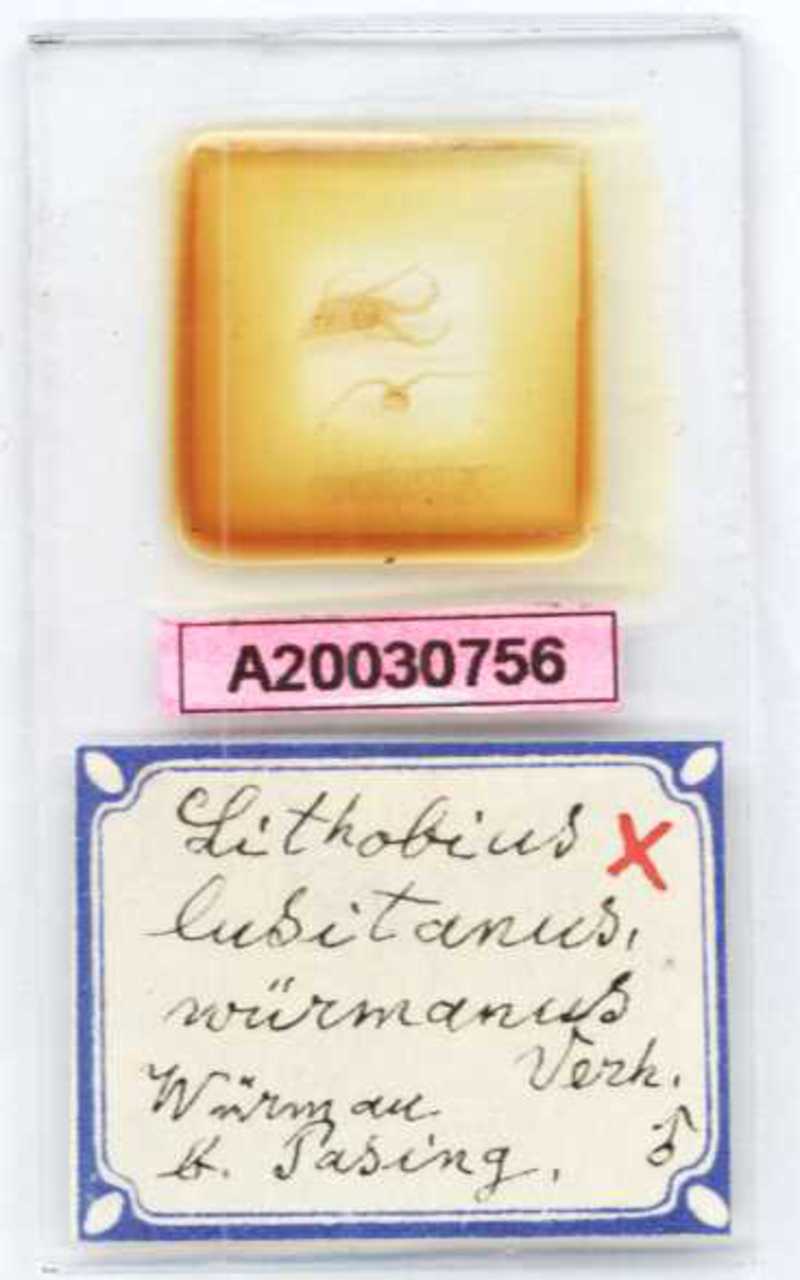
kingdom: Animalia
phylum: Arthropoda
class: Chilopoda
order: Lithobiomorpha
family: Lithobiidae
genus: Lithobius
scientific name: Lithobius borealis
